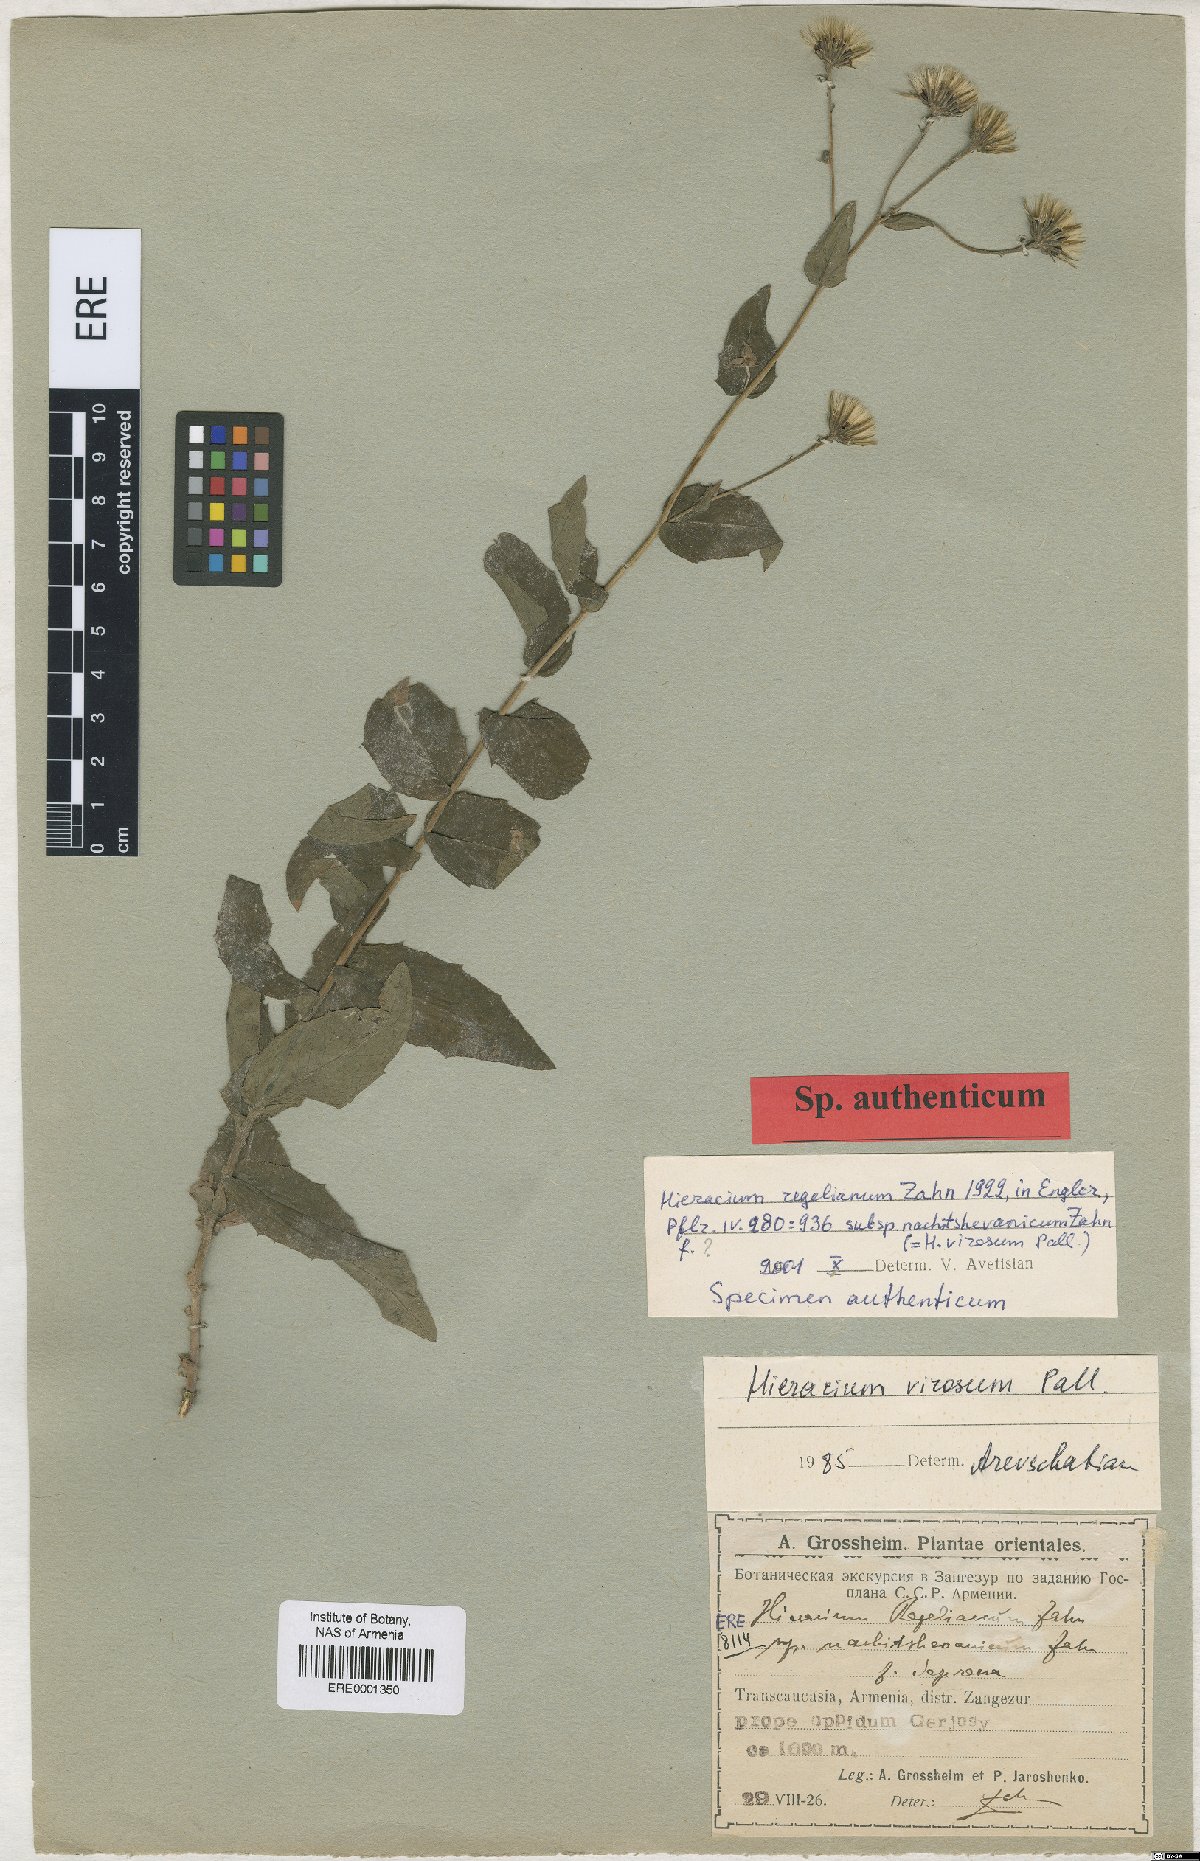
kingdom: Plantae
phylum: Tracheophyta
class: Magnoliopsida
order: Asterales
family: Asteraceae
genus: Hieracium
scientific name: Hieracium raddeanum
